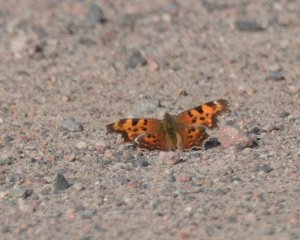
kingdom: Animalia
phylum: Arthropoda
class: Insecta
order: Lepidoptera
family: Nymphalidae
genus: Polygonia
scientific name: Polygonia faunus
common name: Green Comma
